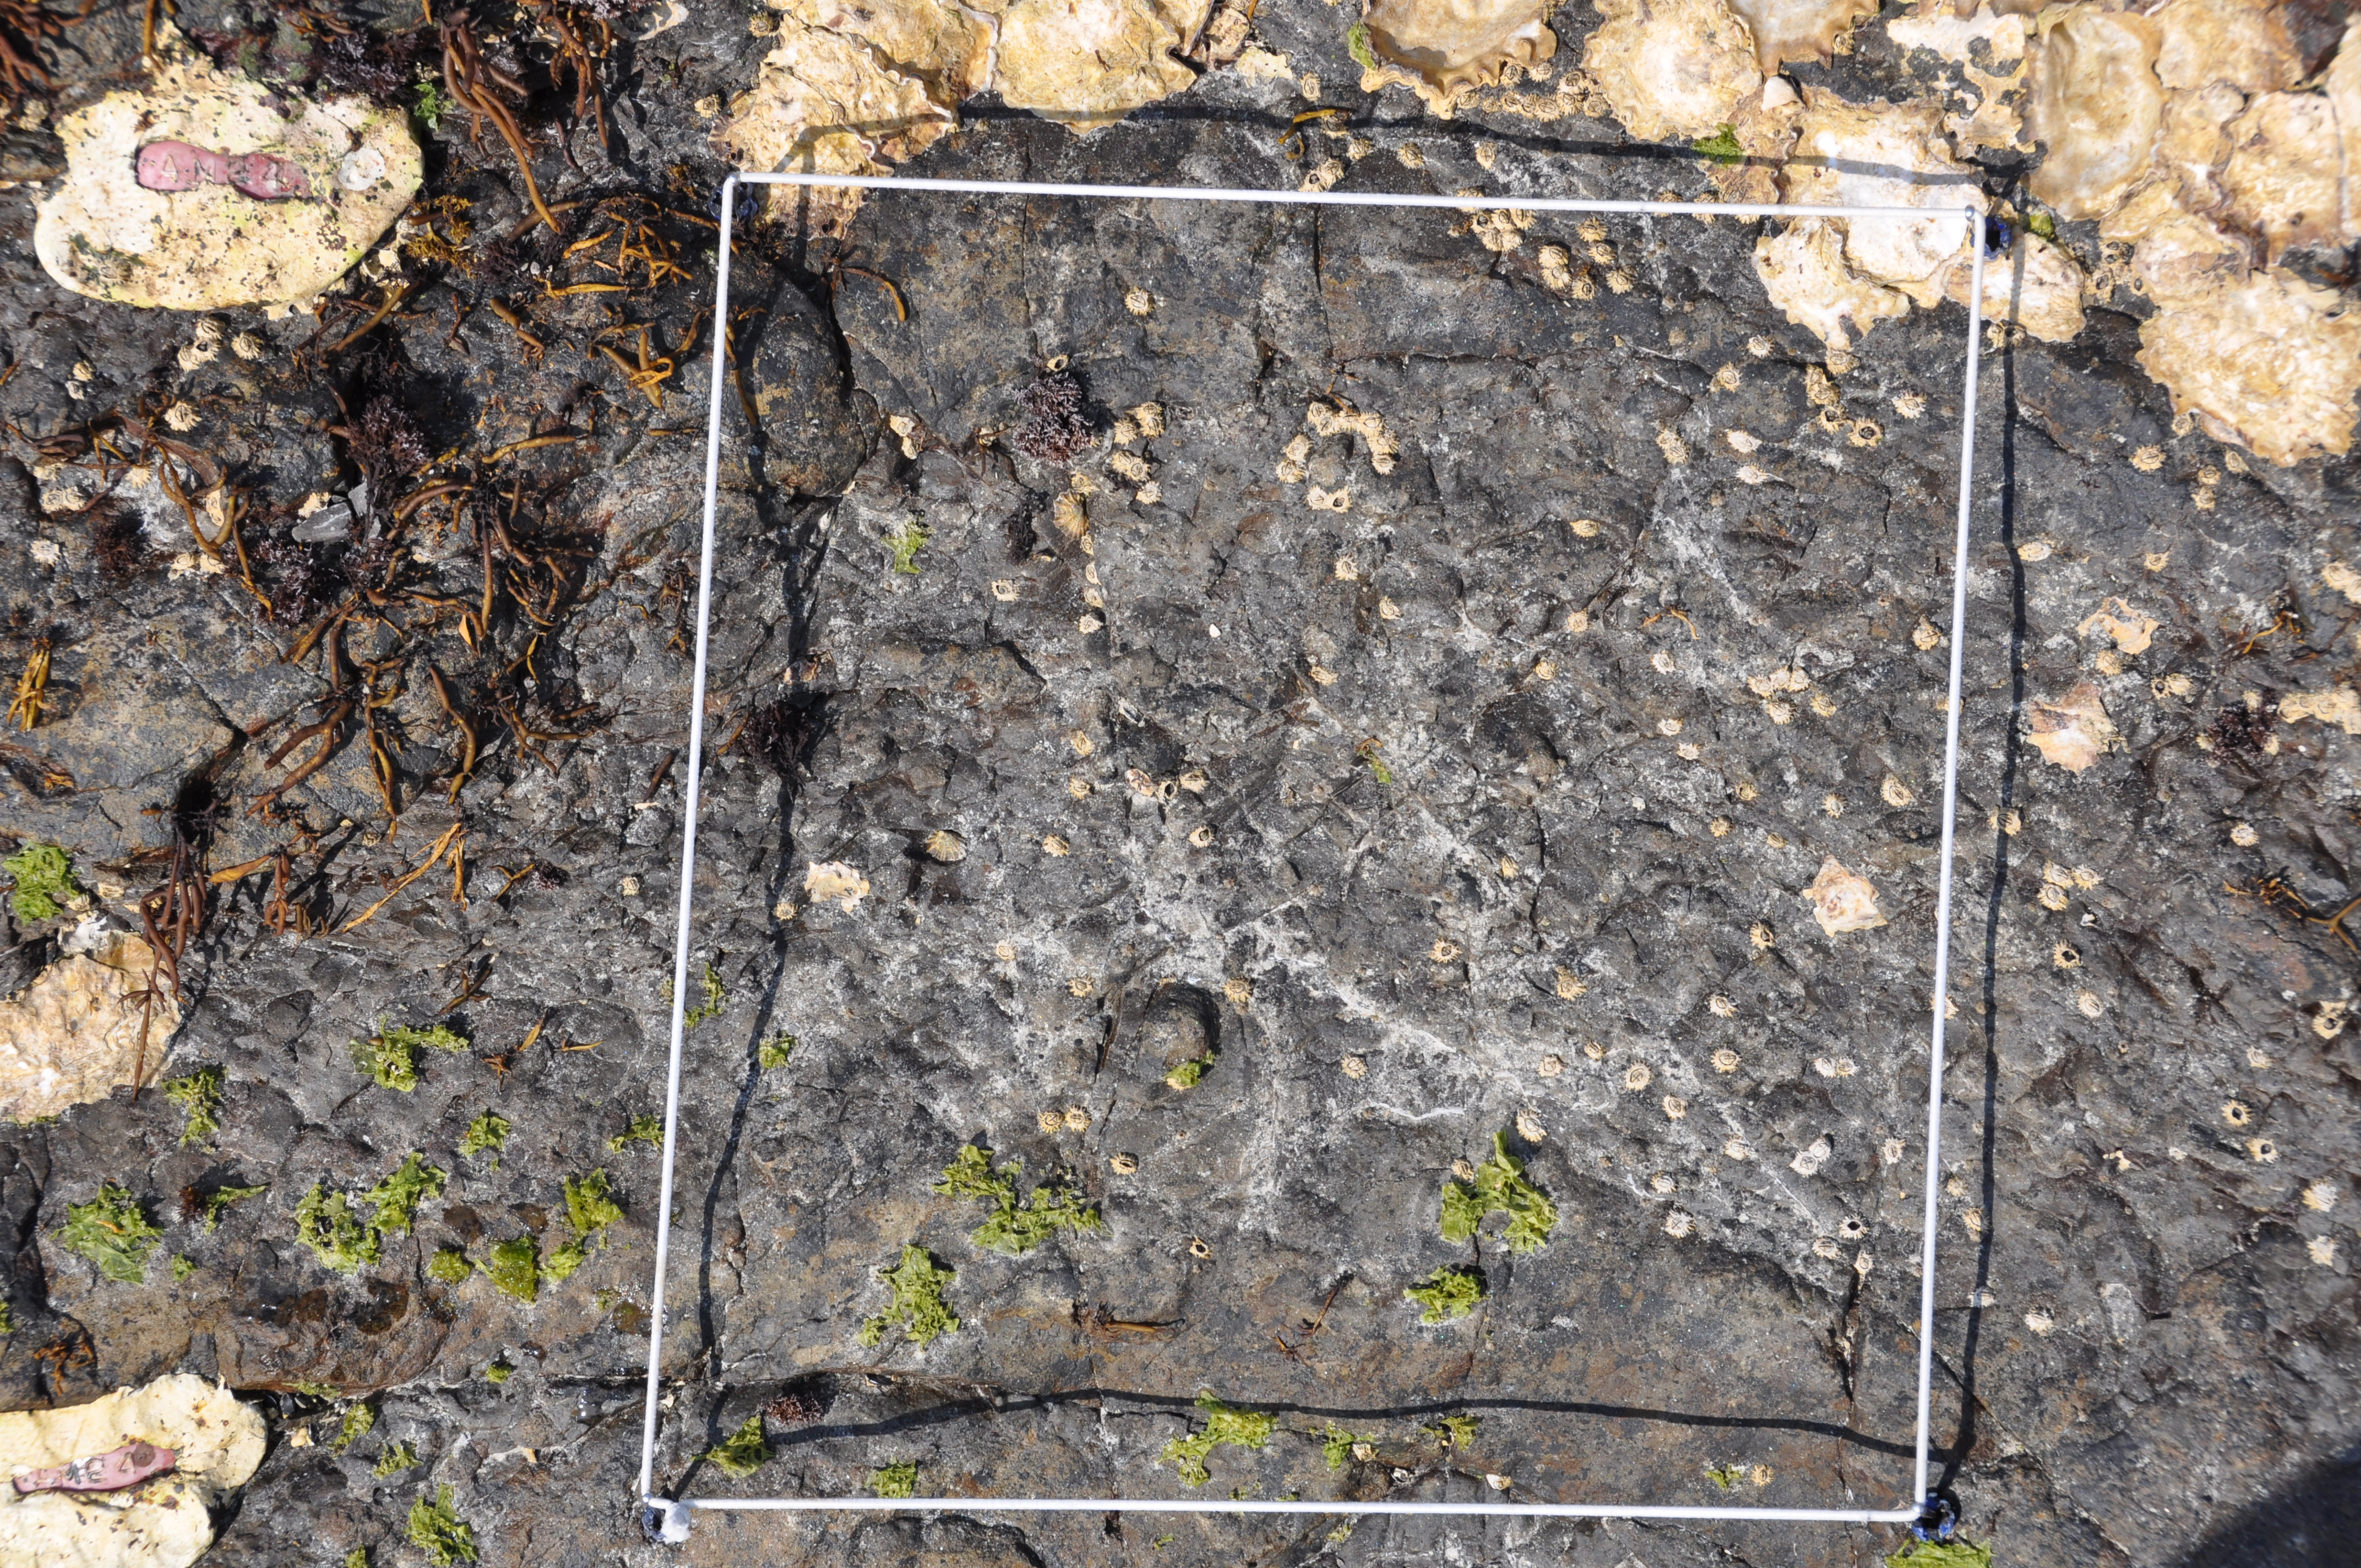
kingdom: Animalia
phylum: Arthropoda
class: Maxillopoda
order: Sessilia
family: Chthamalidae
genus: Chthamalus
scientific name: Chthamalus challengeri
